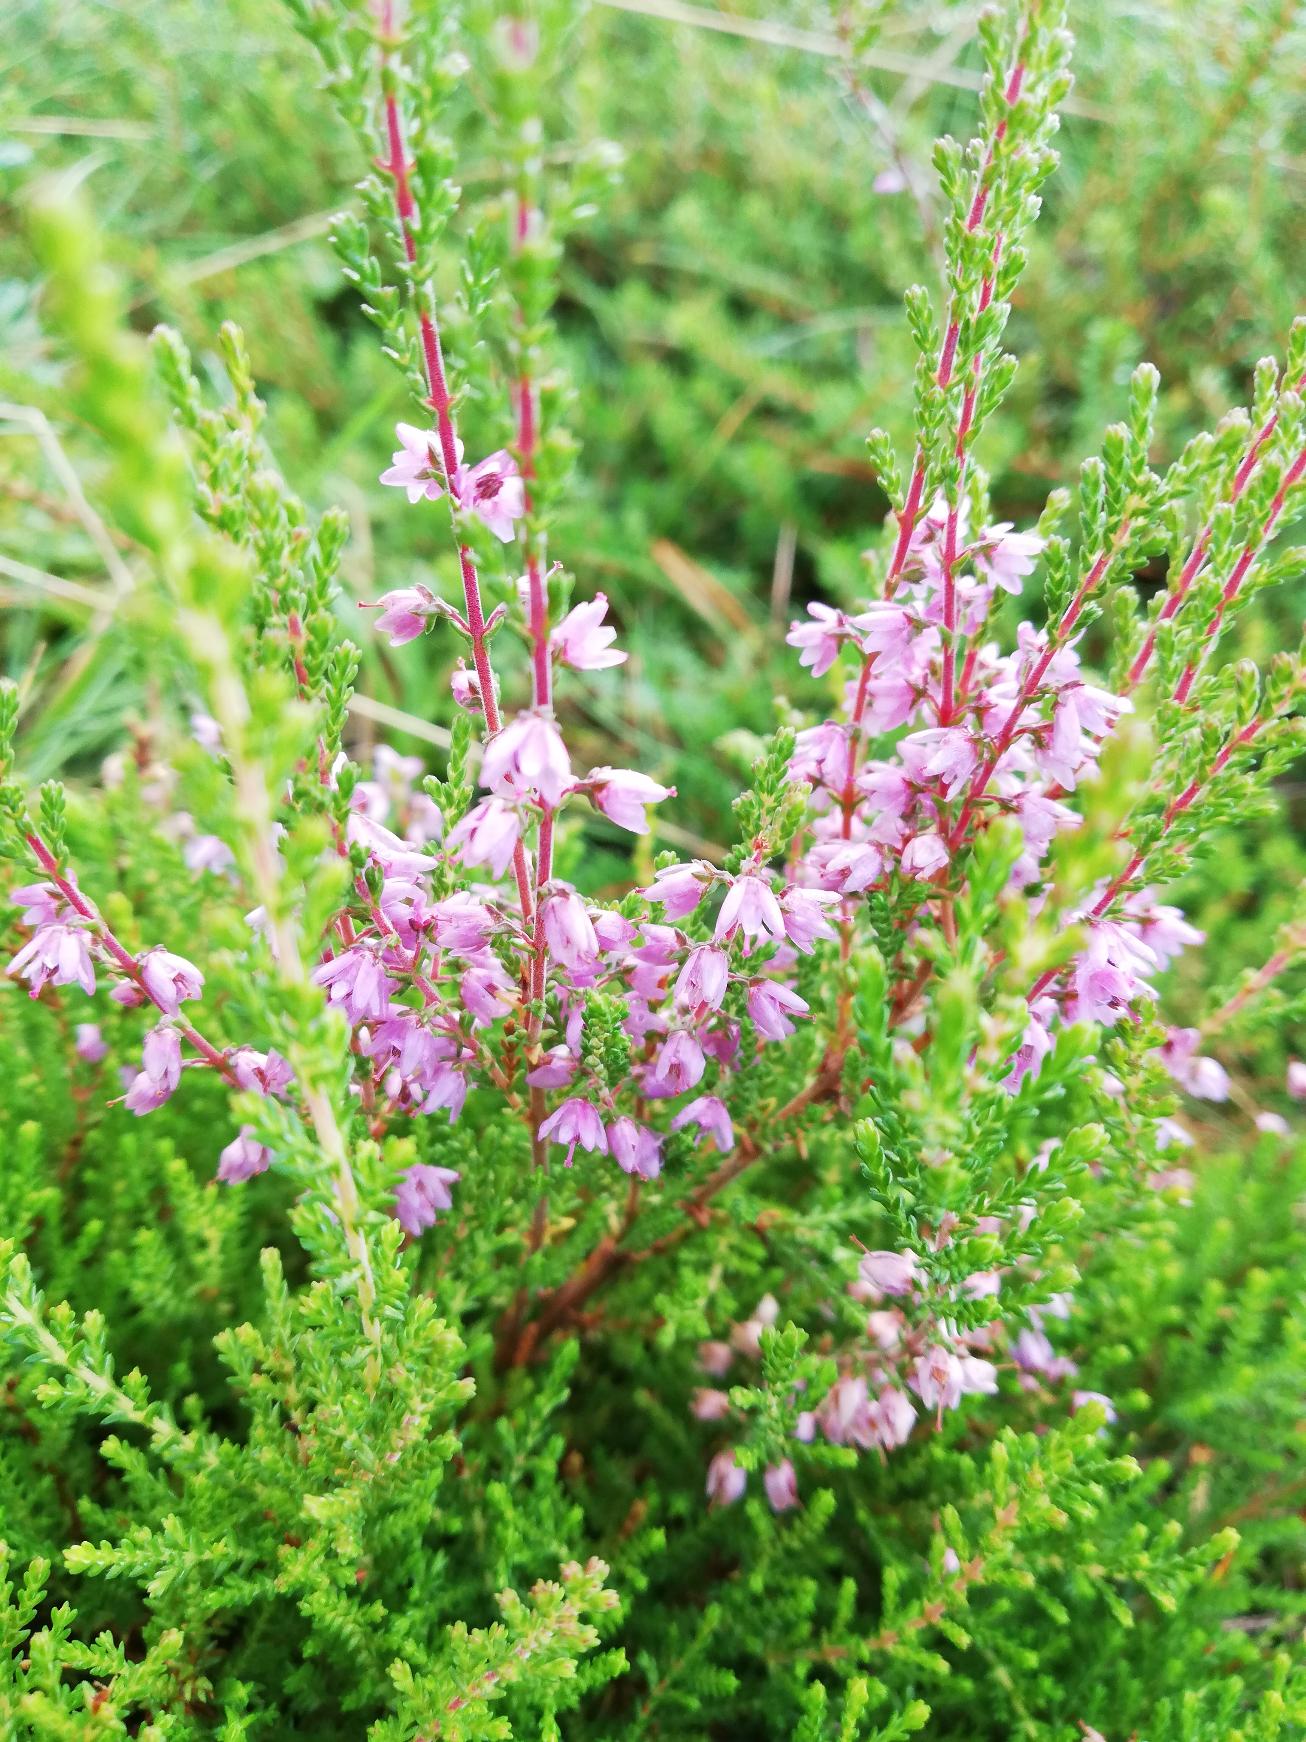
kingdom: Plantae
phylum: Tracheophyta
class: Magnoliopsida
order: Ericales
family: Ericaceae
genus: Calluna
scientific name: Calluna vulgaris
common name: Hedelyng
